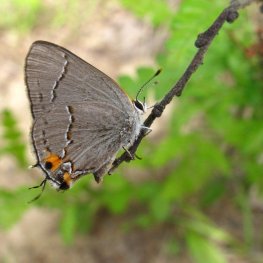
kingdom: Animalia
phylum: Arthropoda
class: Insecta
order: Lepidoptera
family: Lycaenidae
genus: Strymon
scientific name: Strymon melinus
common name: Gray Hairstreak
